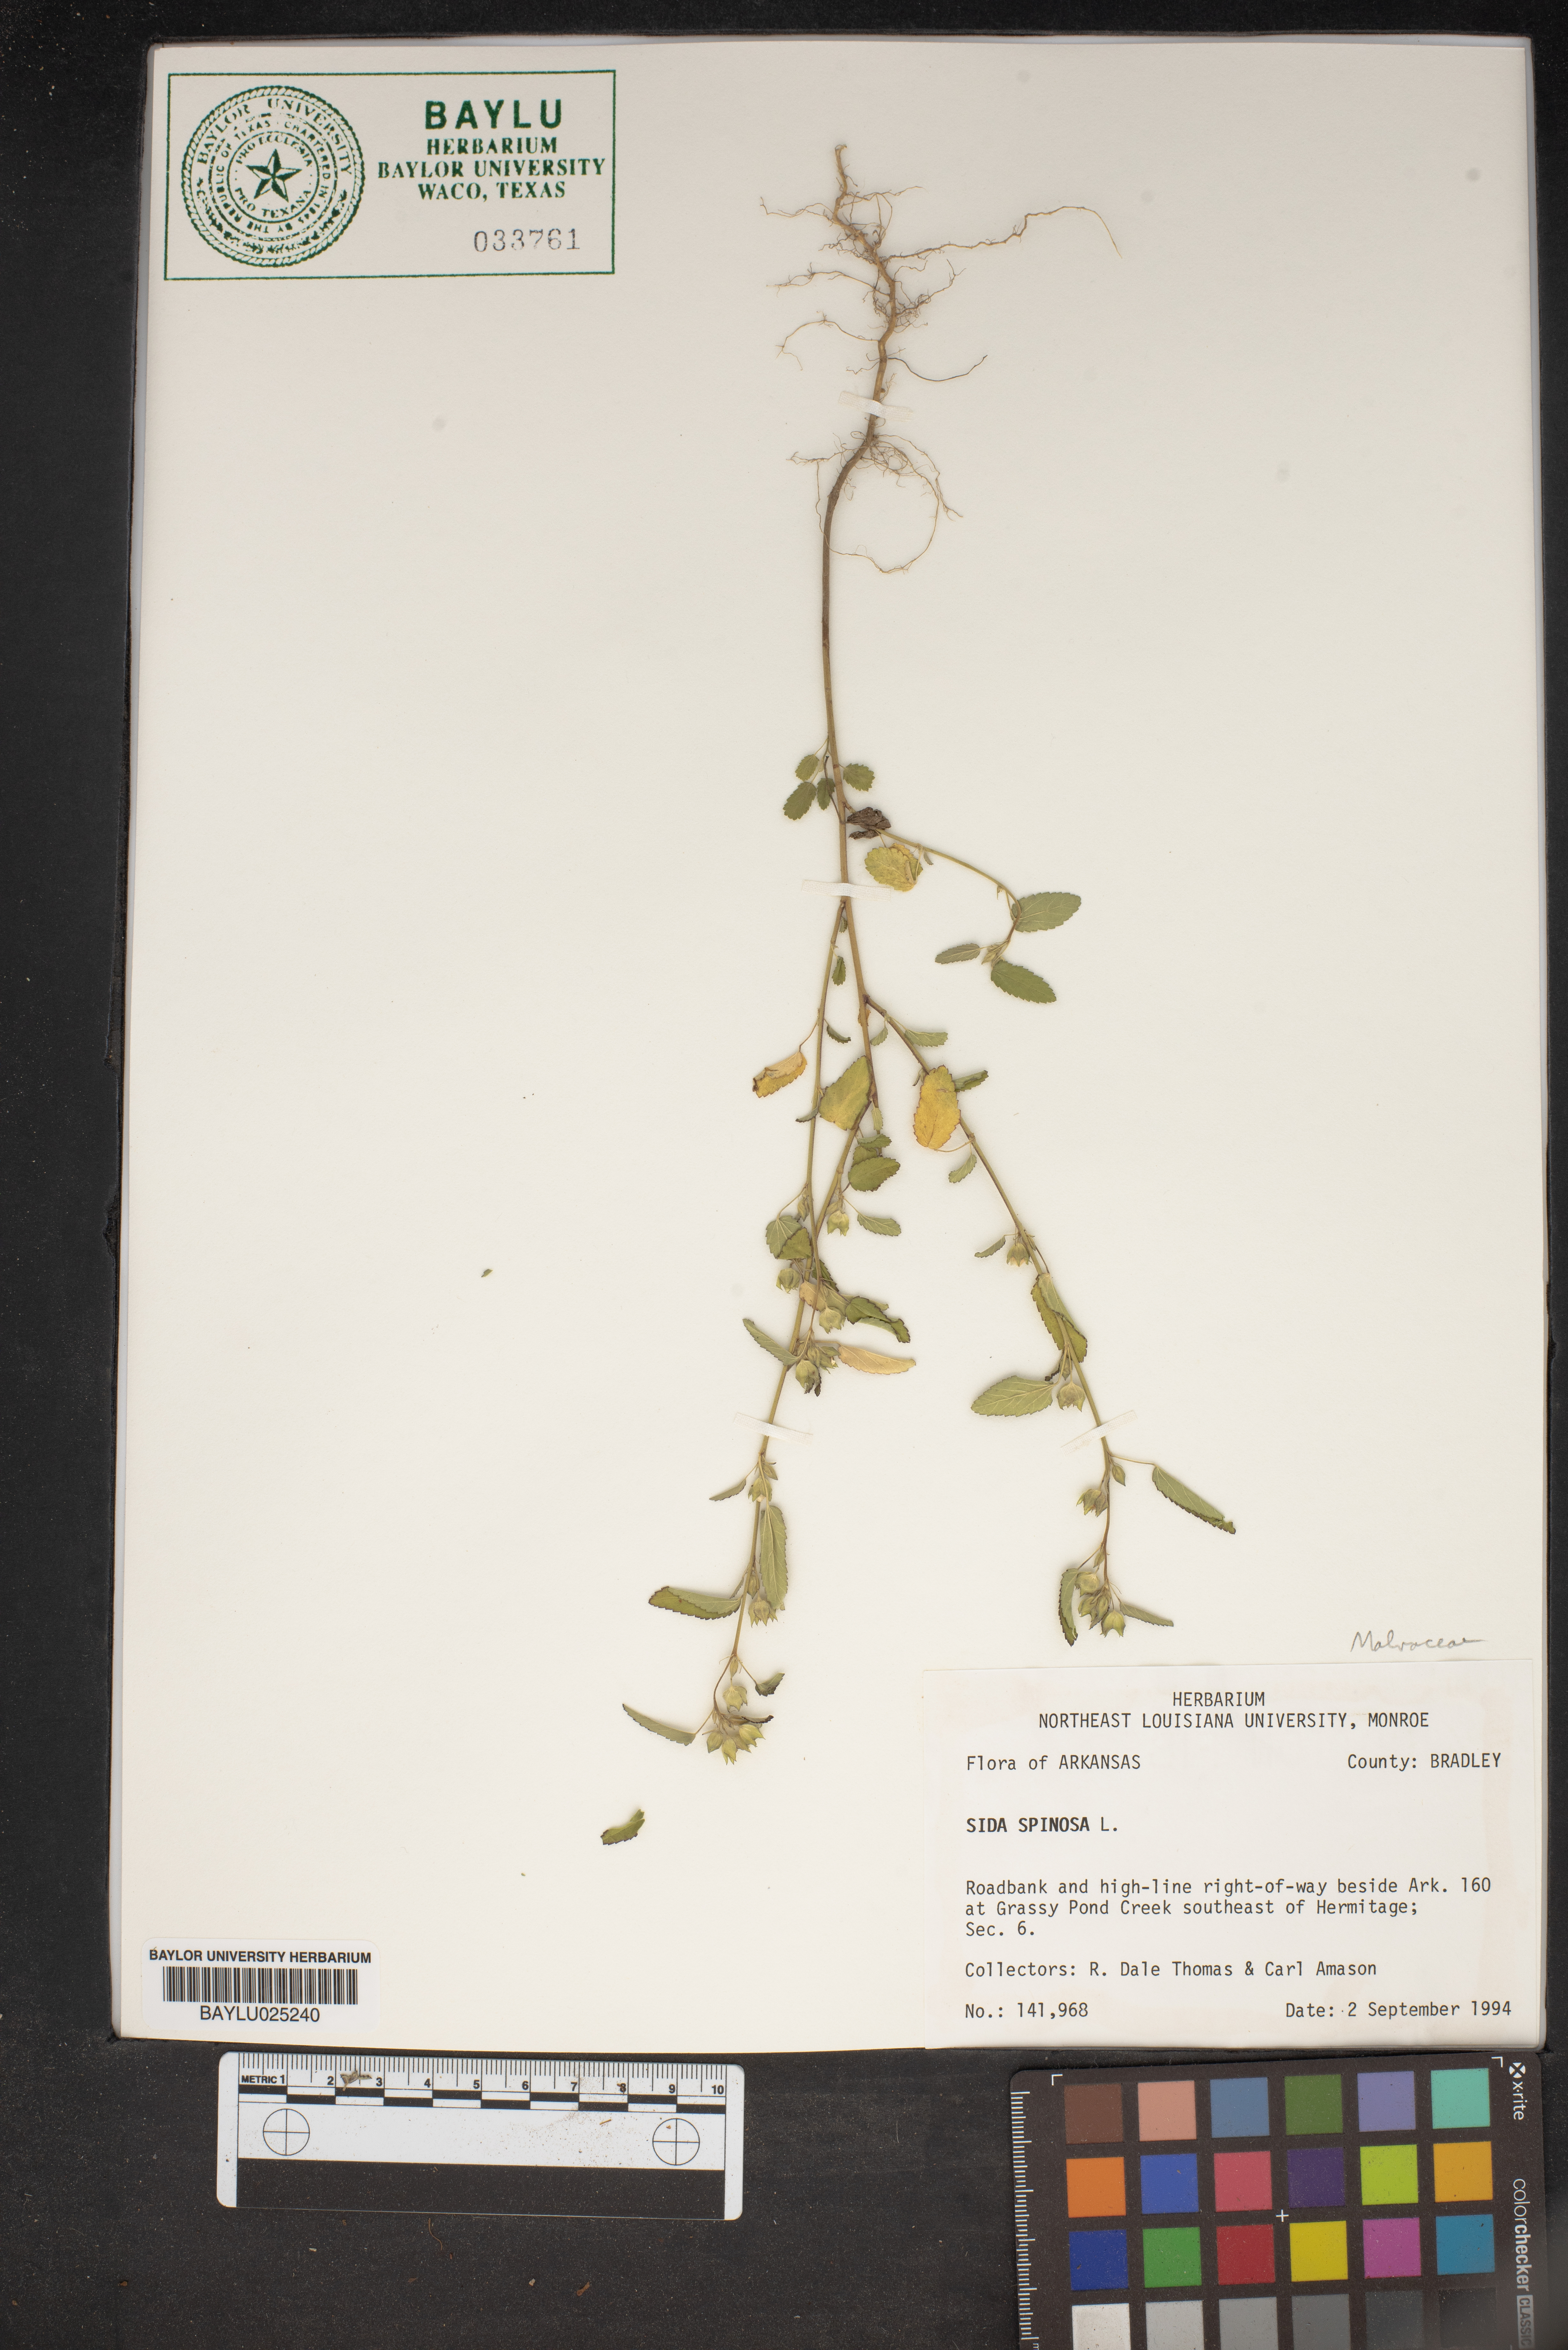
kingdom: Plantae
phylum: Tracheophyta
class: Magnoliopsida
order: Malvales
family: Malvaceae
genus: Sida
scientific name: Sida spinosa
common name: Prickly fanpetals
